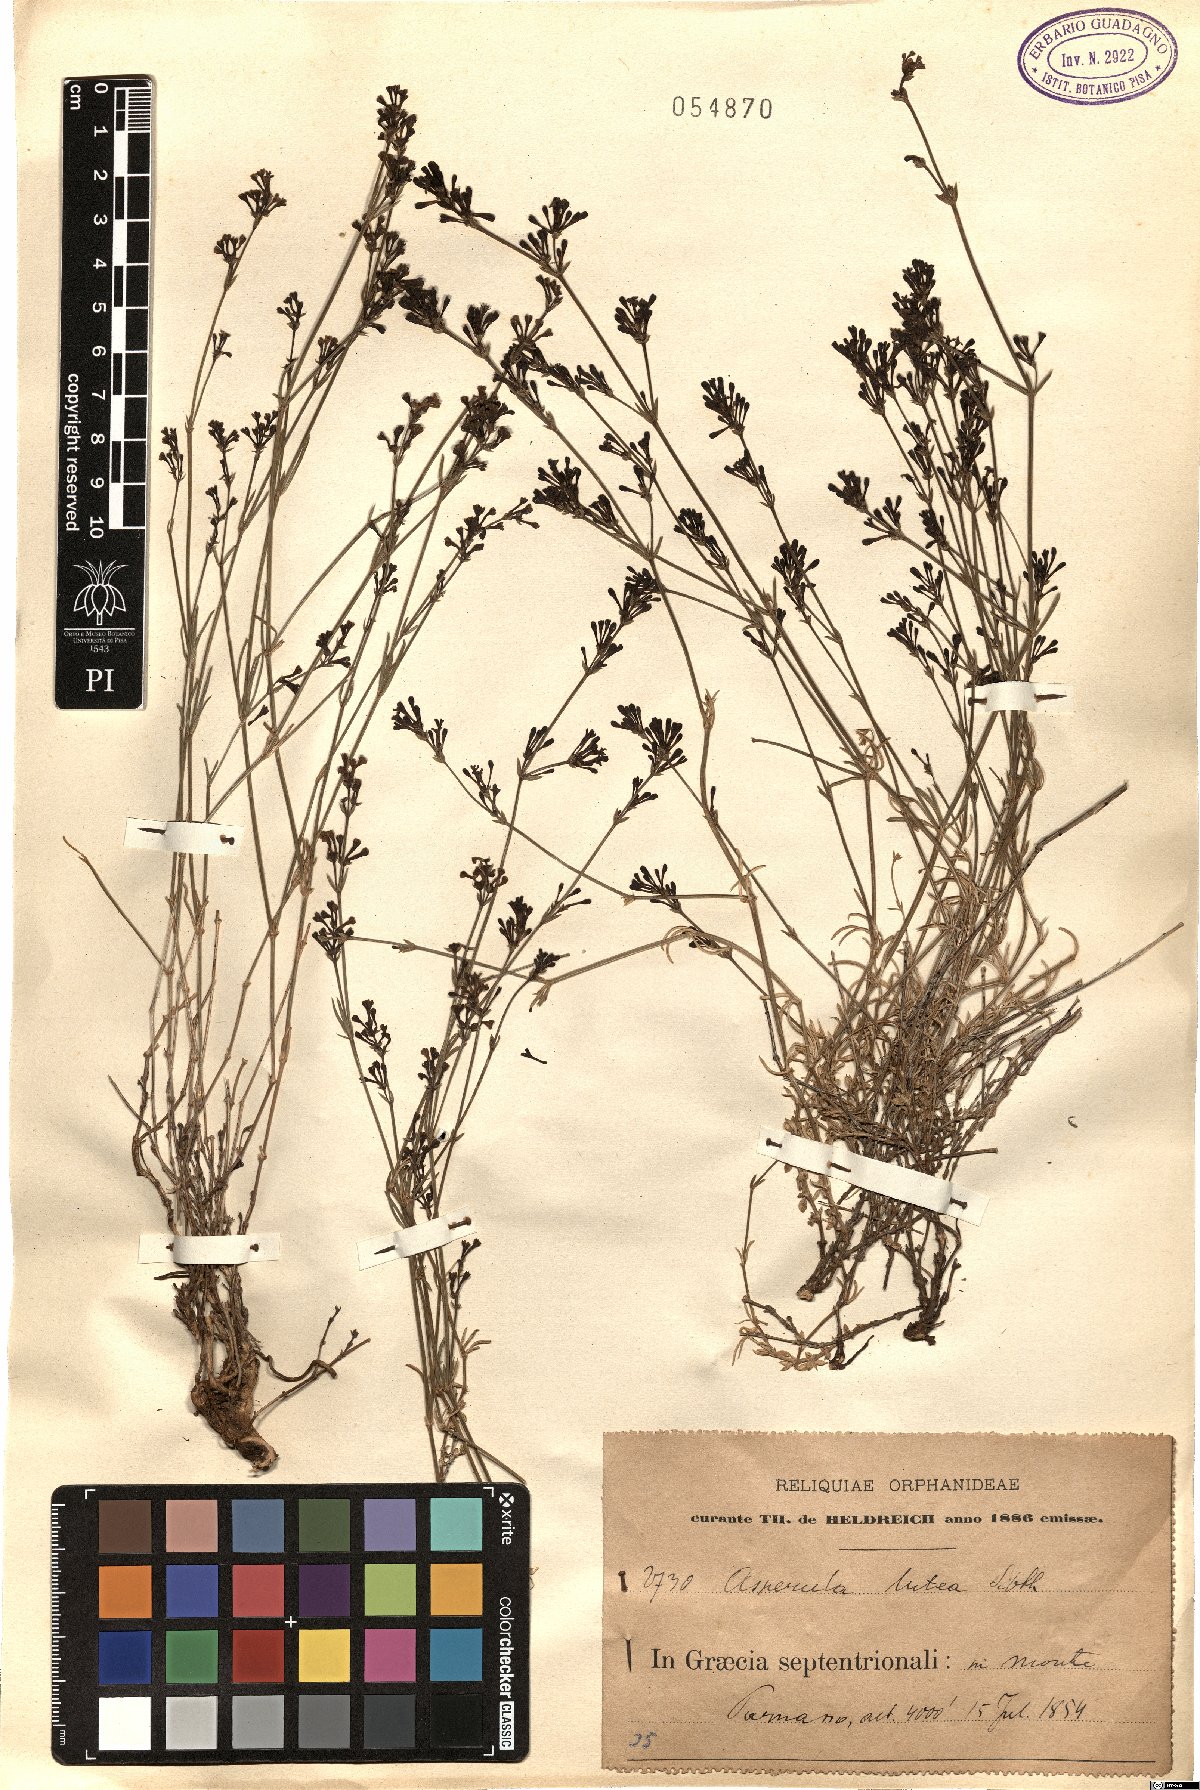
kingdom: Plantae
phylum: Tracheophyta
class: Magnoliopsida
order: Gentianales
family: Rubiaceae
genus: Cynanchica
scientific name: Cynanchica lutea
